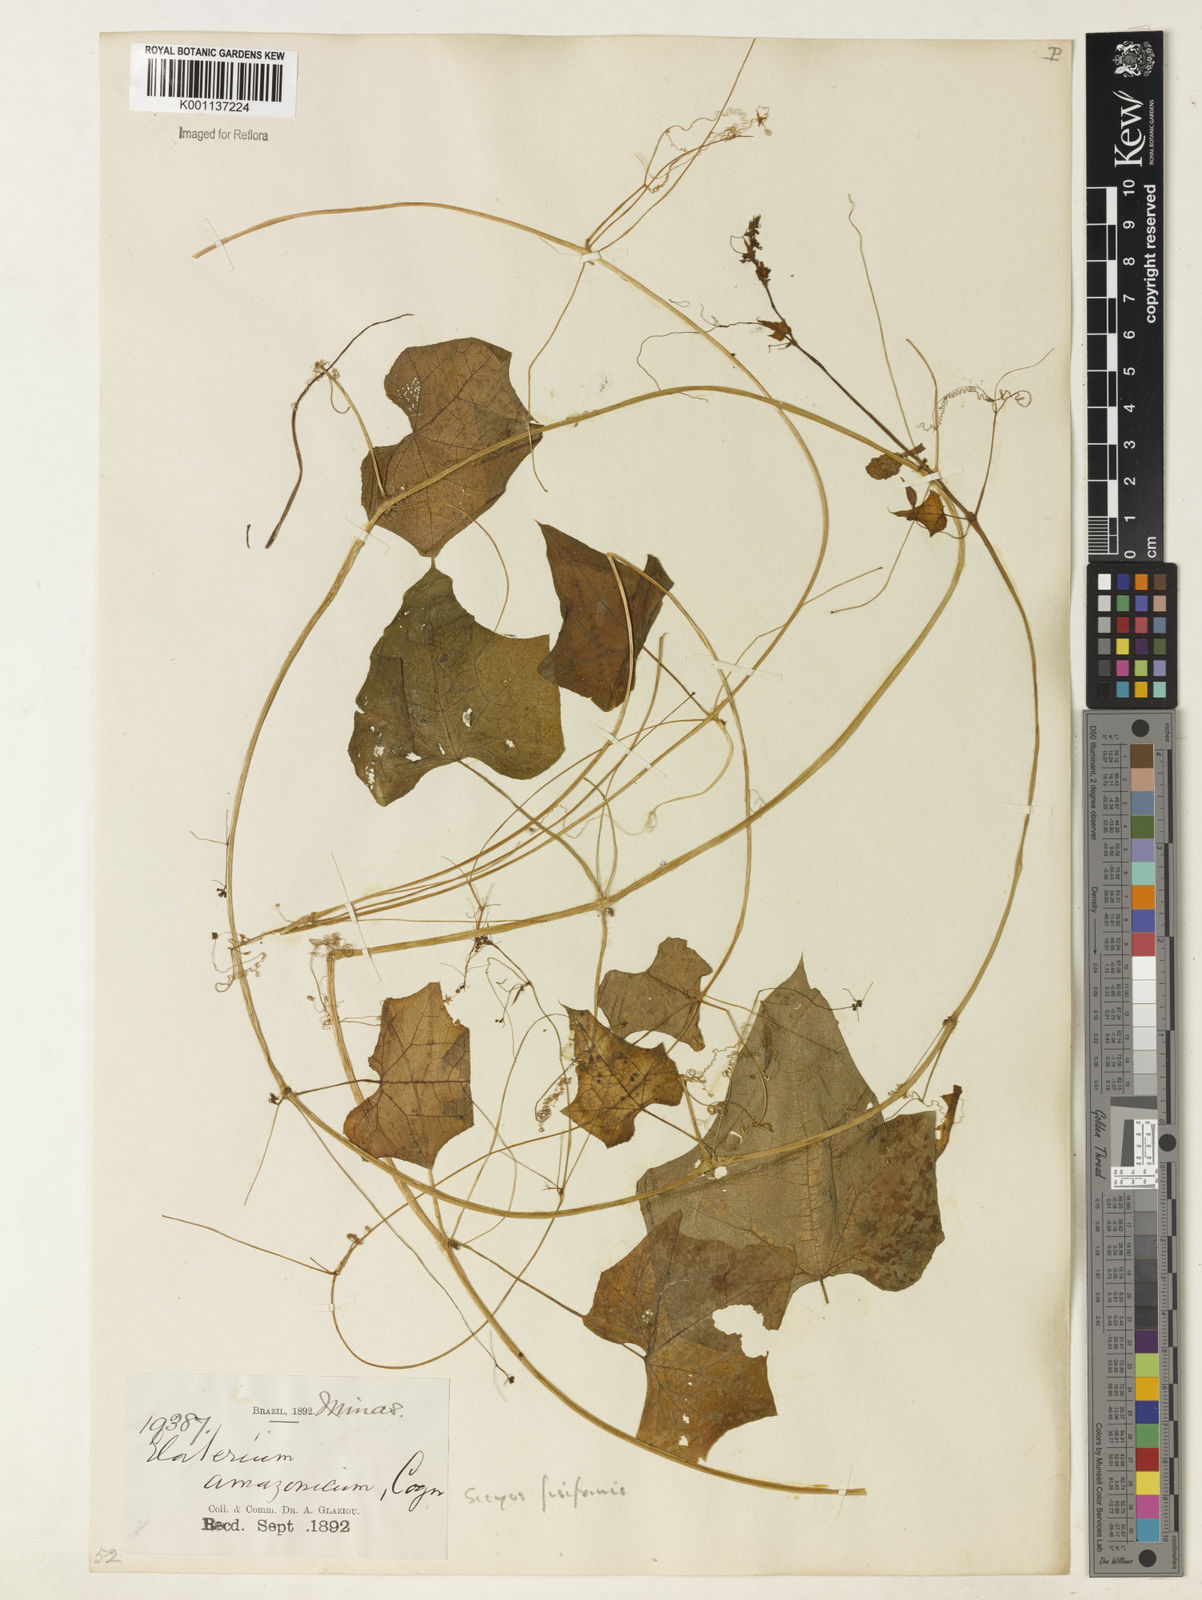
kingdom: Plantae
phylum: Tracheophyta
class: Magnoliopsida
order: Cucurbitales
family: Cucurbitaceae
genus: Sicyos
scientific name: Sicyos fusiformis
